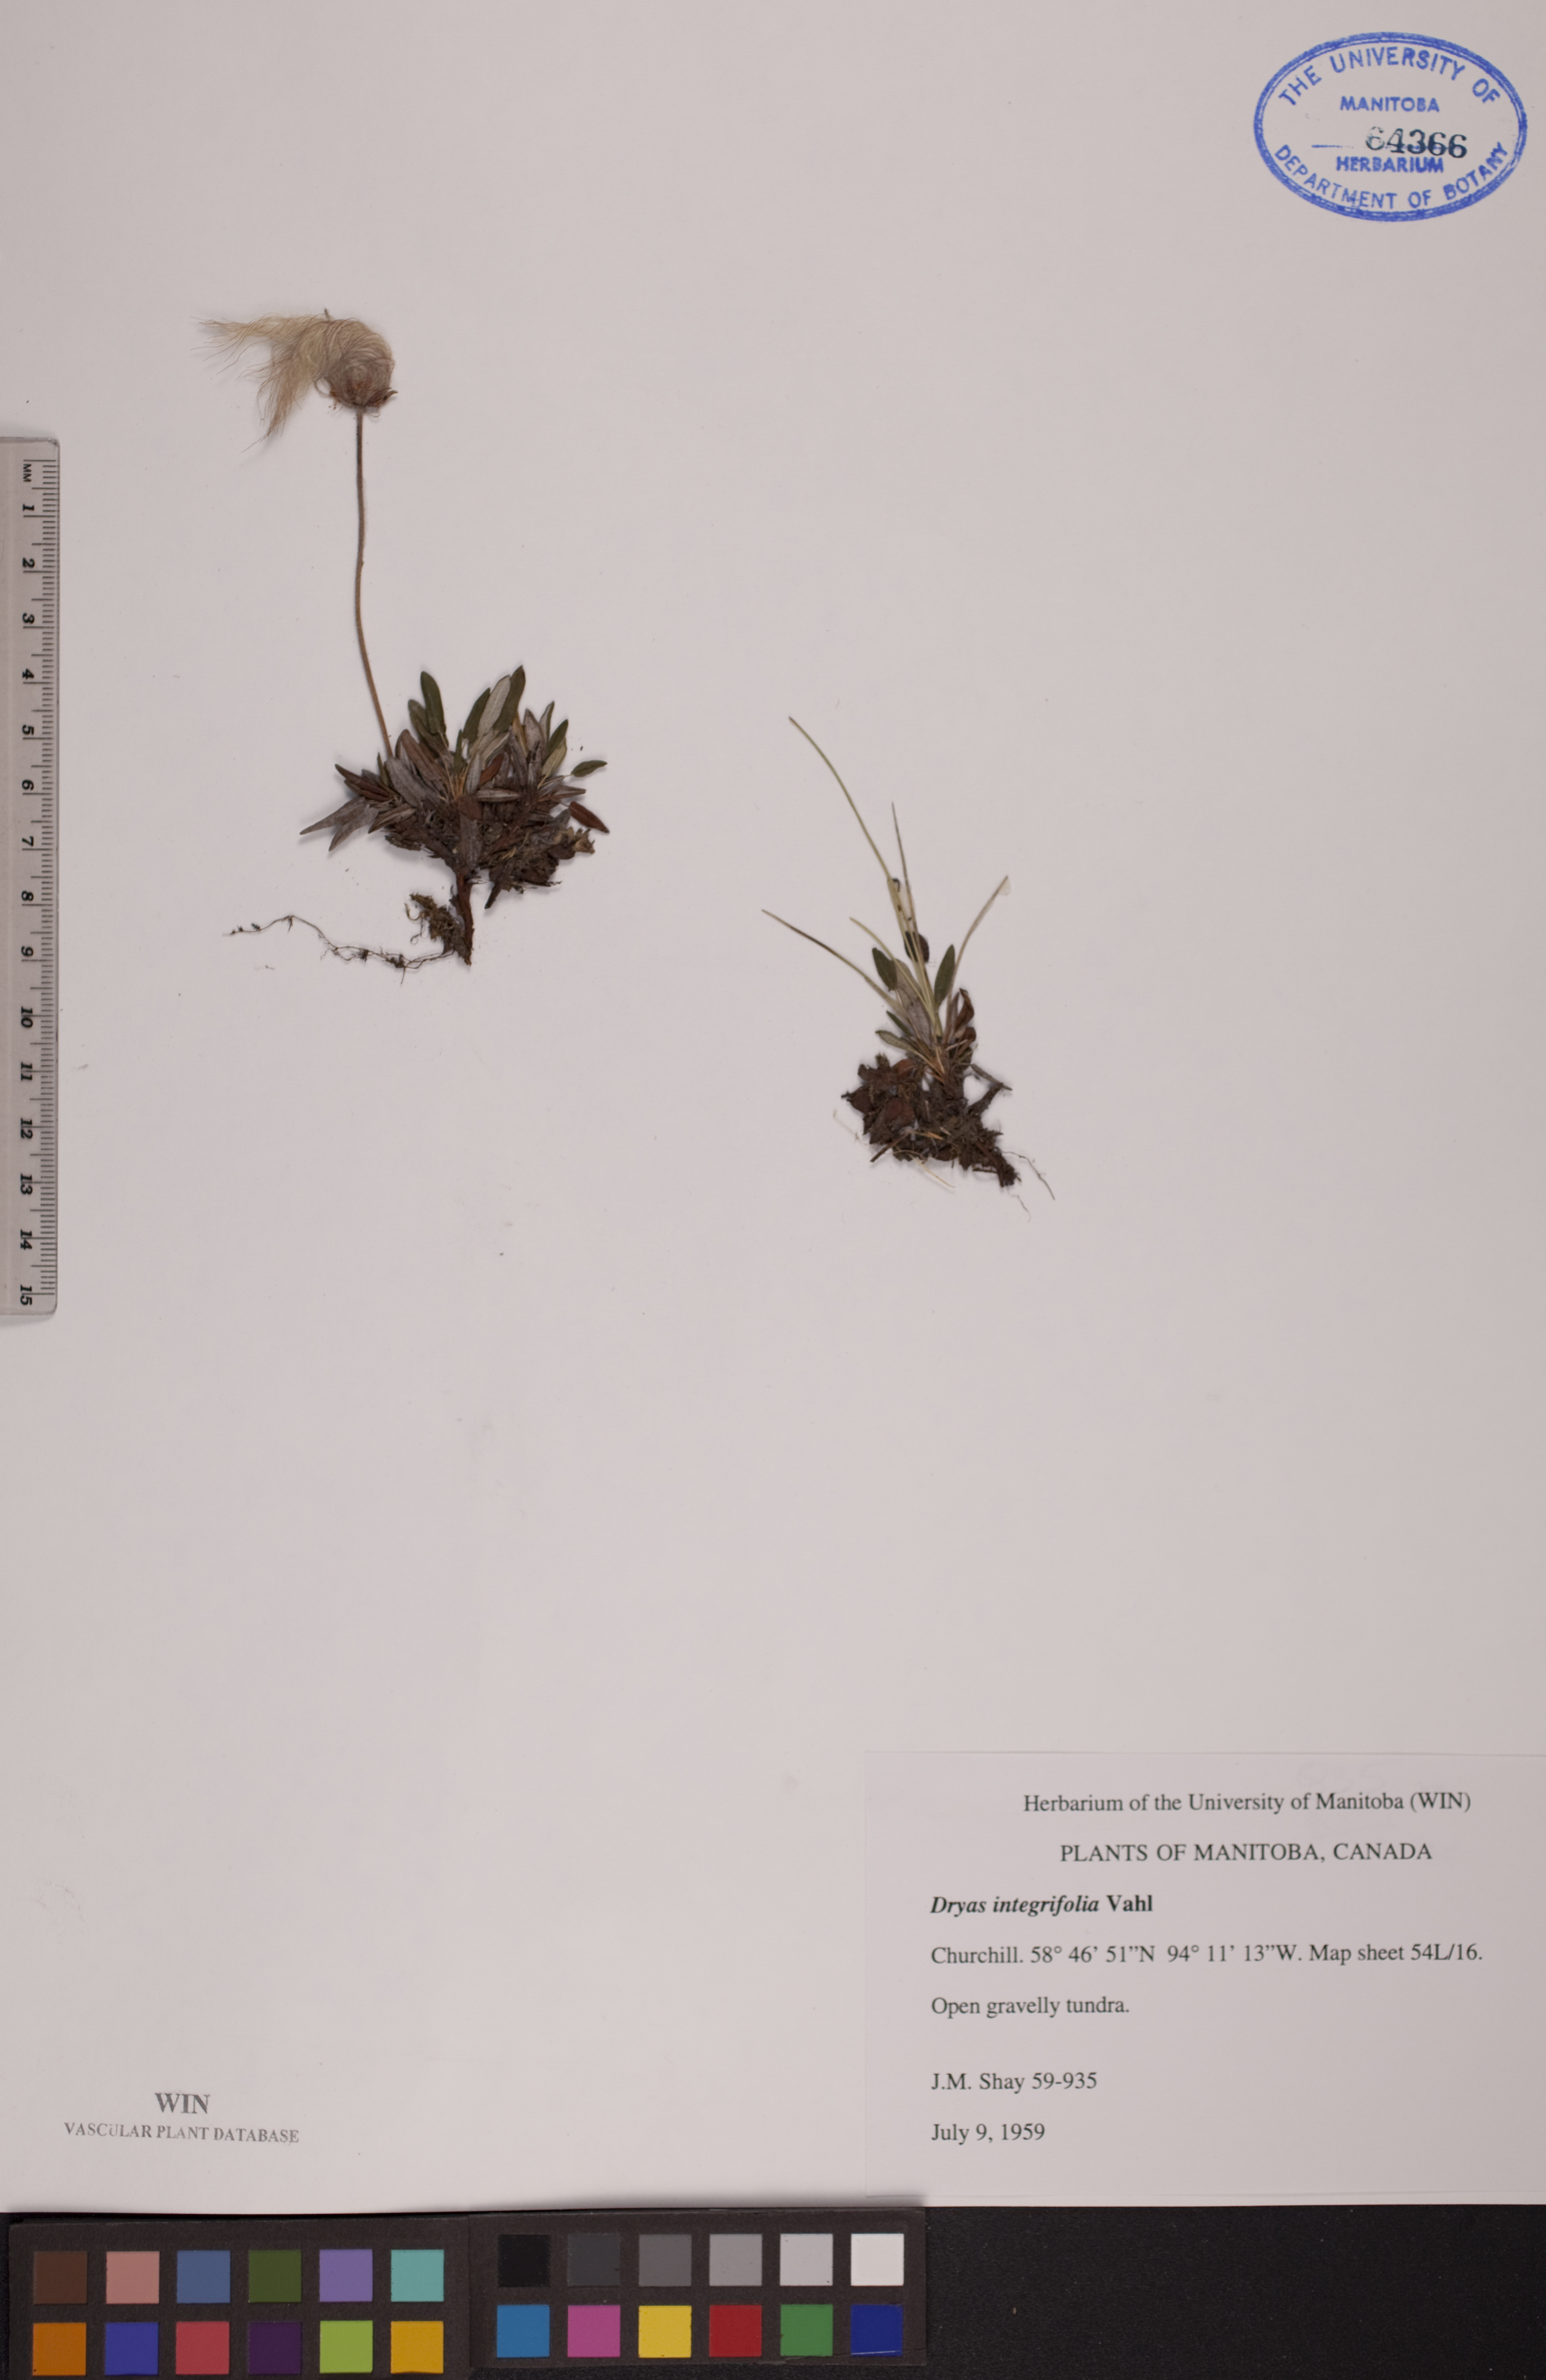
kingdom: Plantae
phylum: Tracheophyta
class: Magnoliopsida
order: Rosales
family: Rosaceae
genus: Dryas
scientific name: Dryas integrifolia
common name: Entire-leaved mountain avens
